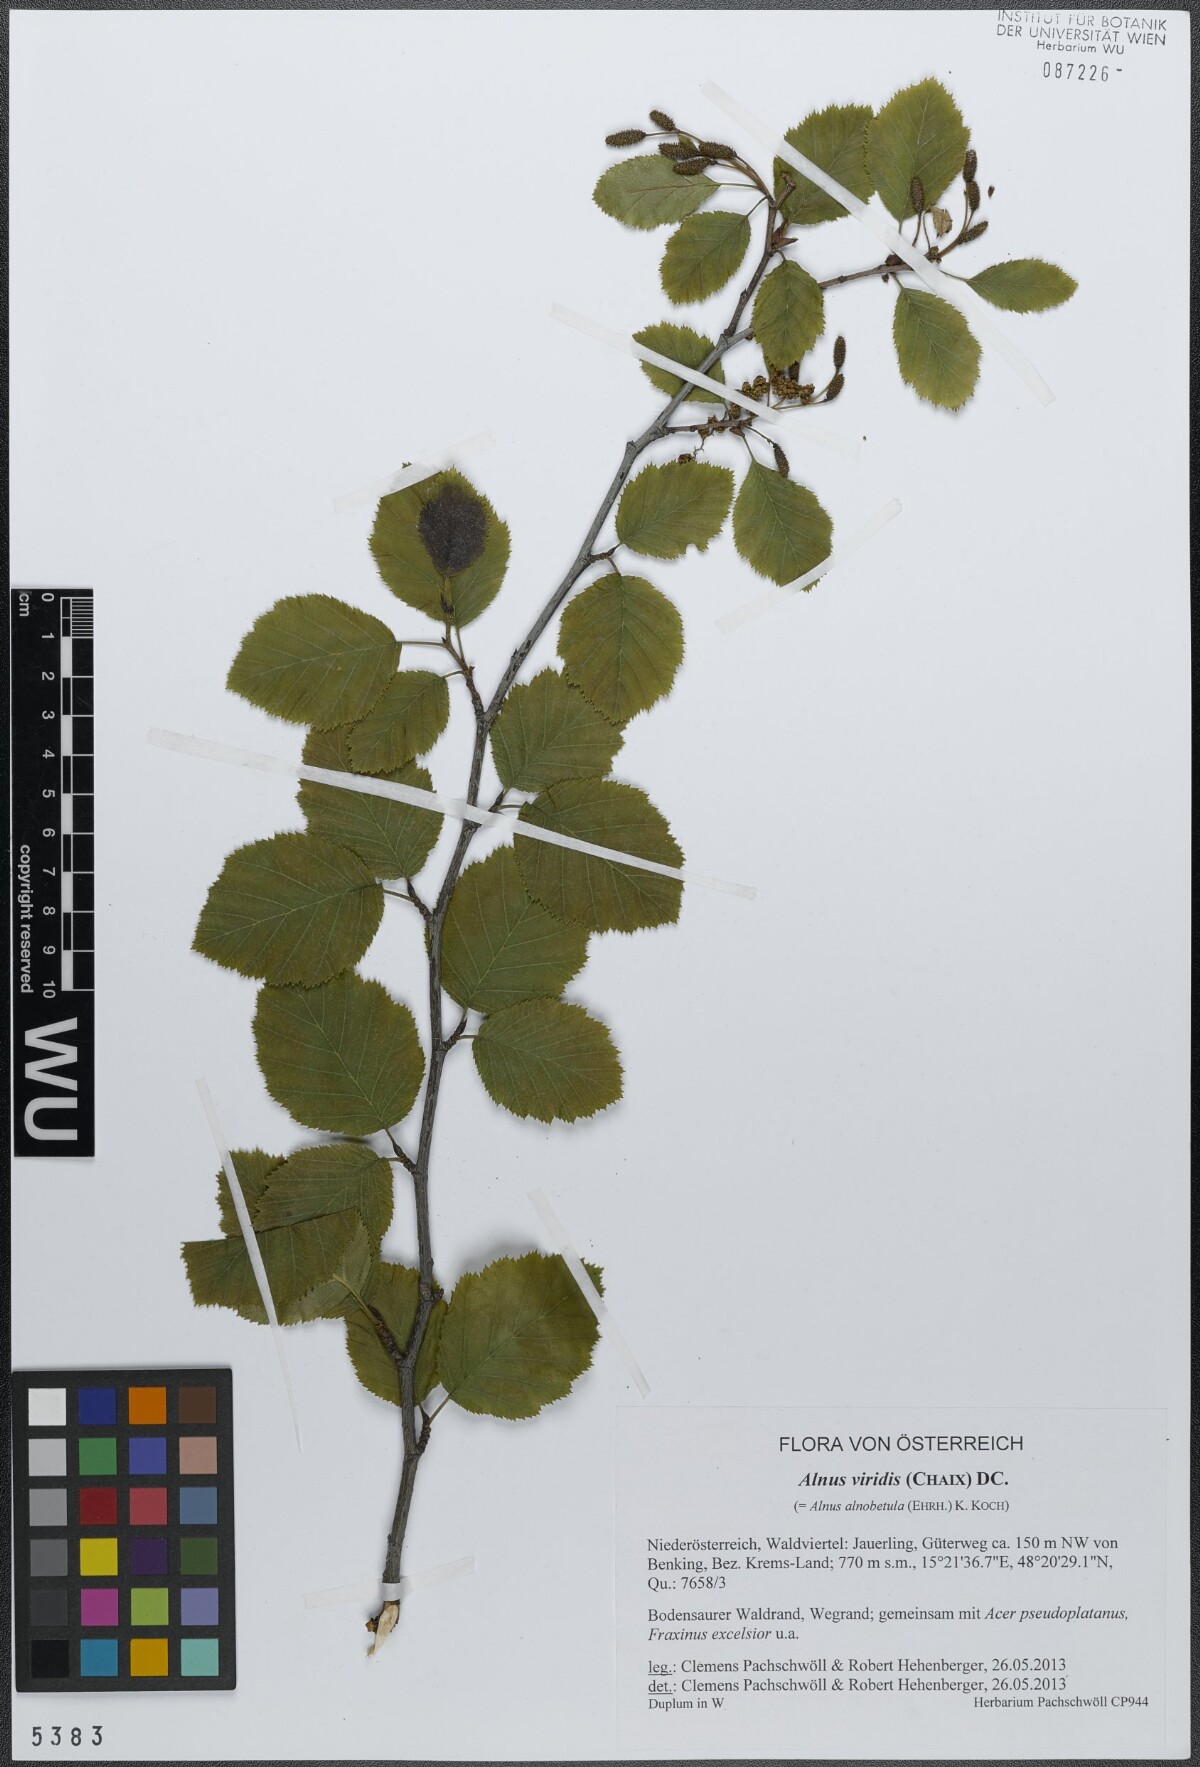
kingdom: Plantae
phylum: Tracheophyta
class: Magnoliopsida
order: Fagales
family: Betulaceae
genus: Alnus
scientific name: Alnus alnobetula
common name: Green alder
